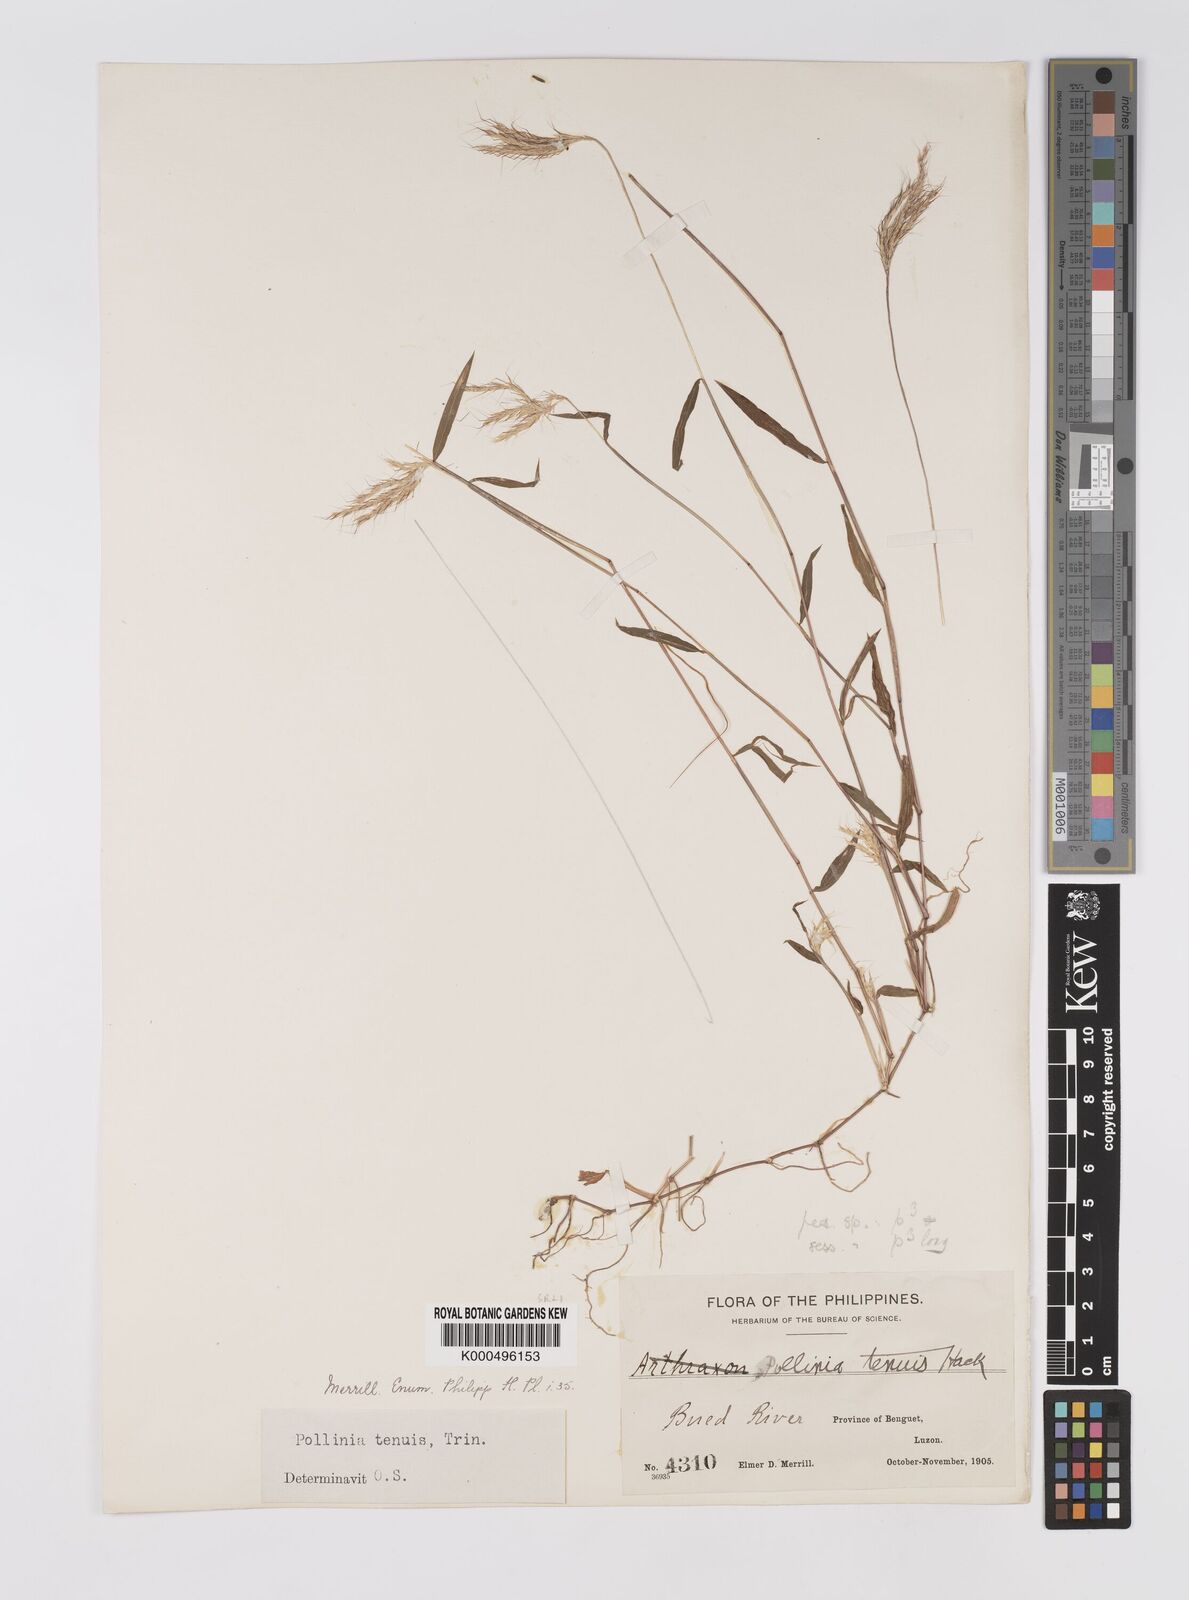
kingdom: Plantae
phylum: Tracheophyta
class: Liliopsida
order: Poales
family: Poaceae
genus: Microstegium
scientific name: Microstegium tenue
